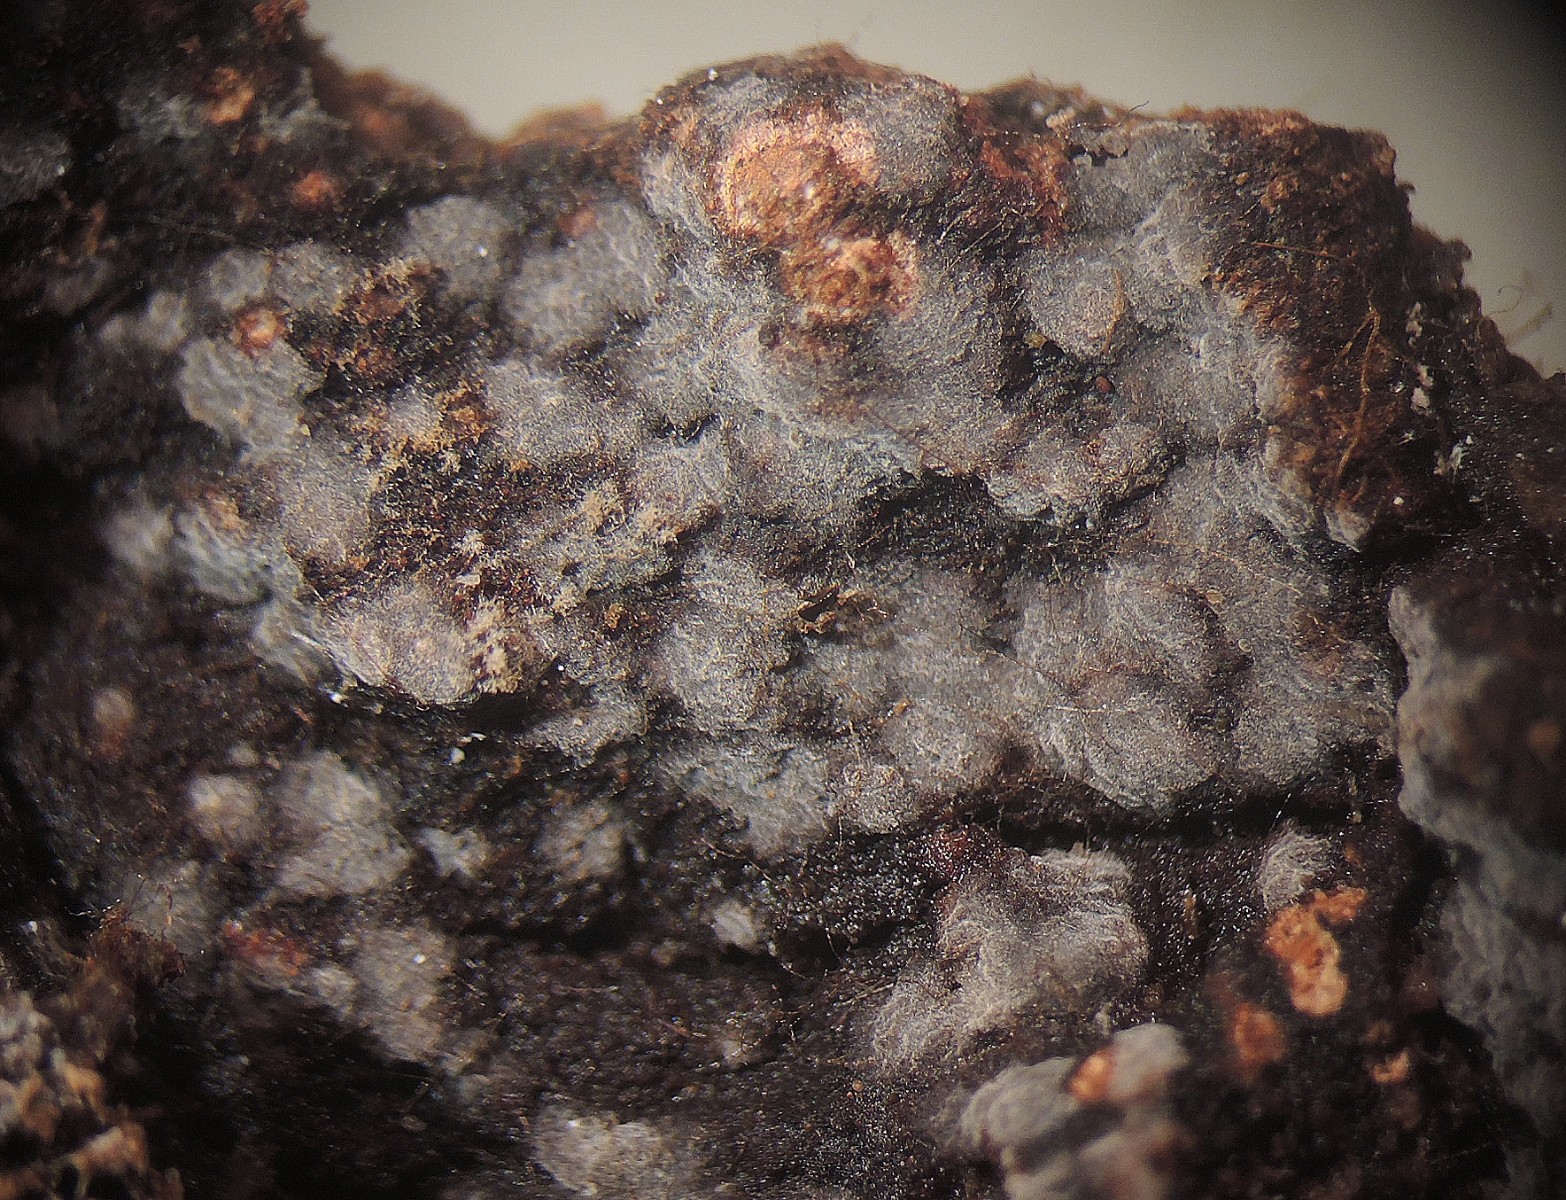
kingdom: Fungi
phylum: Ascomycota
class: Leotiomycetes
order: Helotiales
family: Ascocorticiaceae
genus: Ascocorticium
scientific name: Ascocorticium anomalum
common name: almindelig sækhinde
